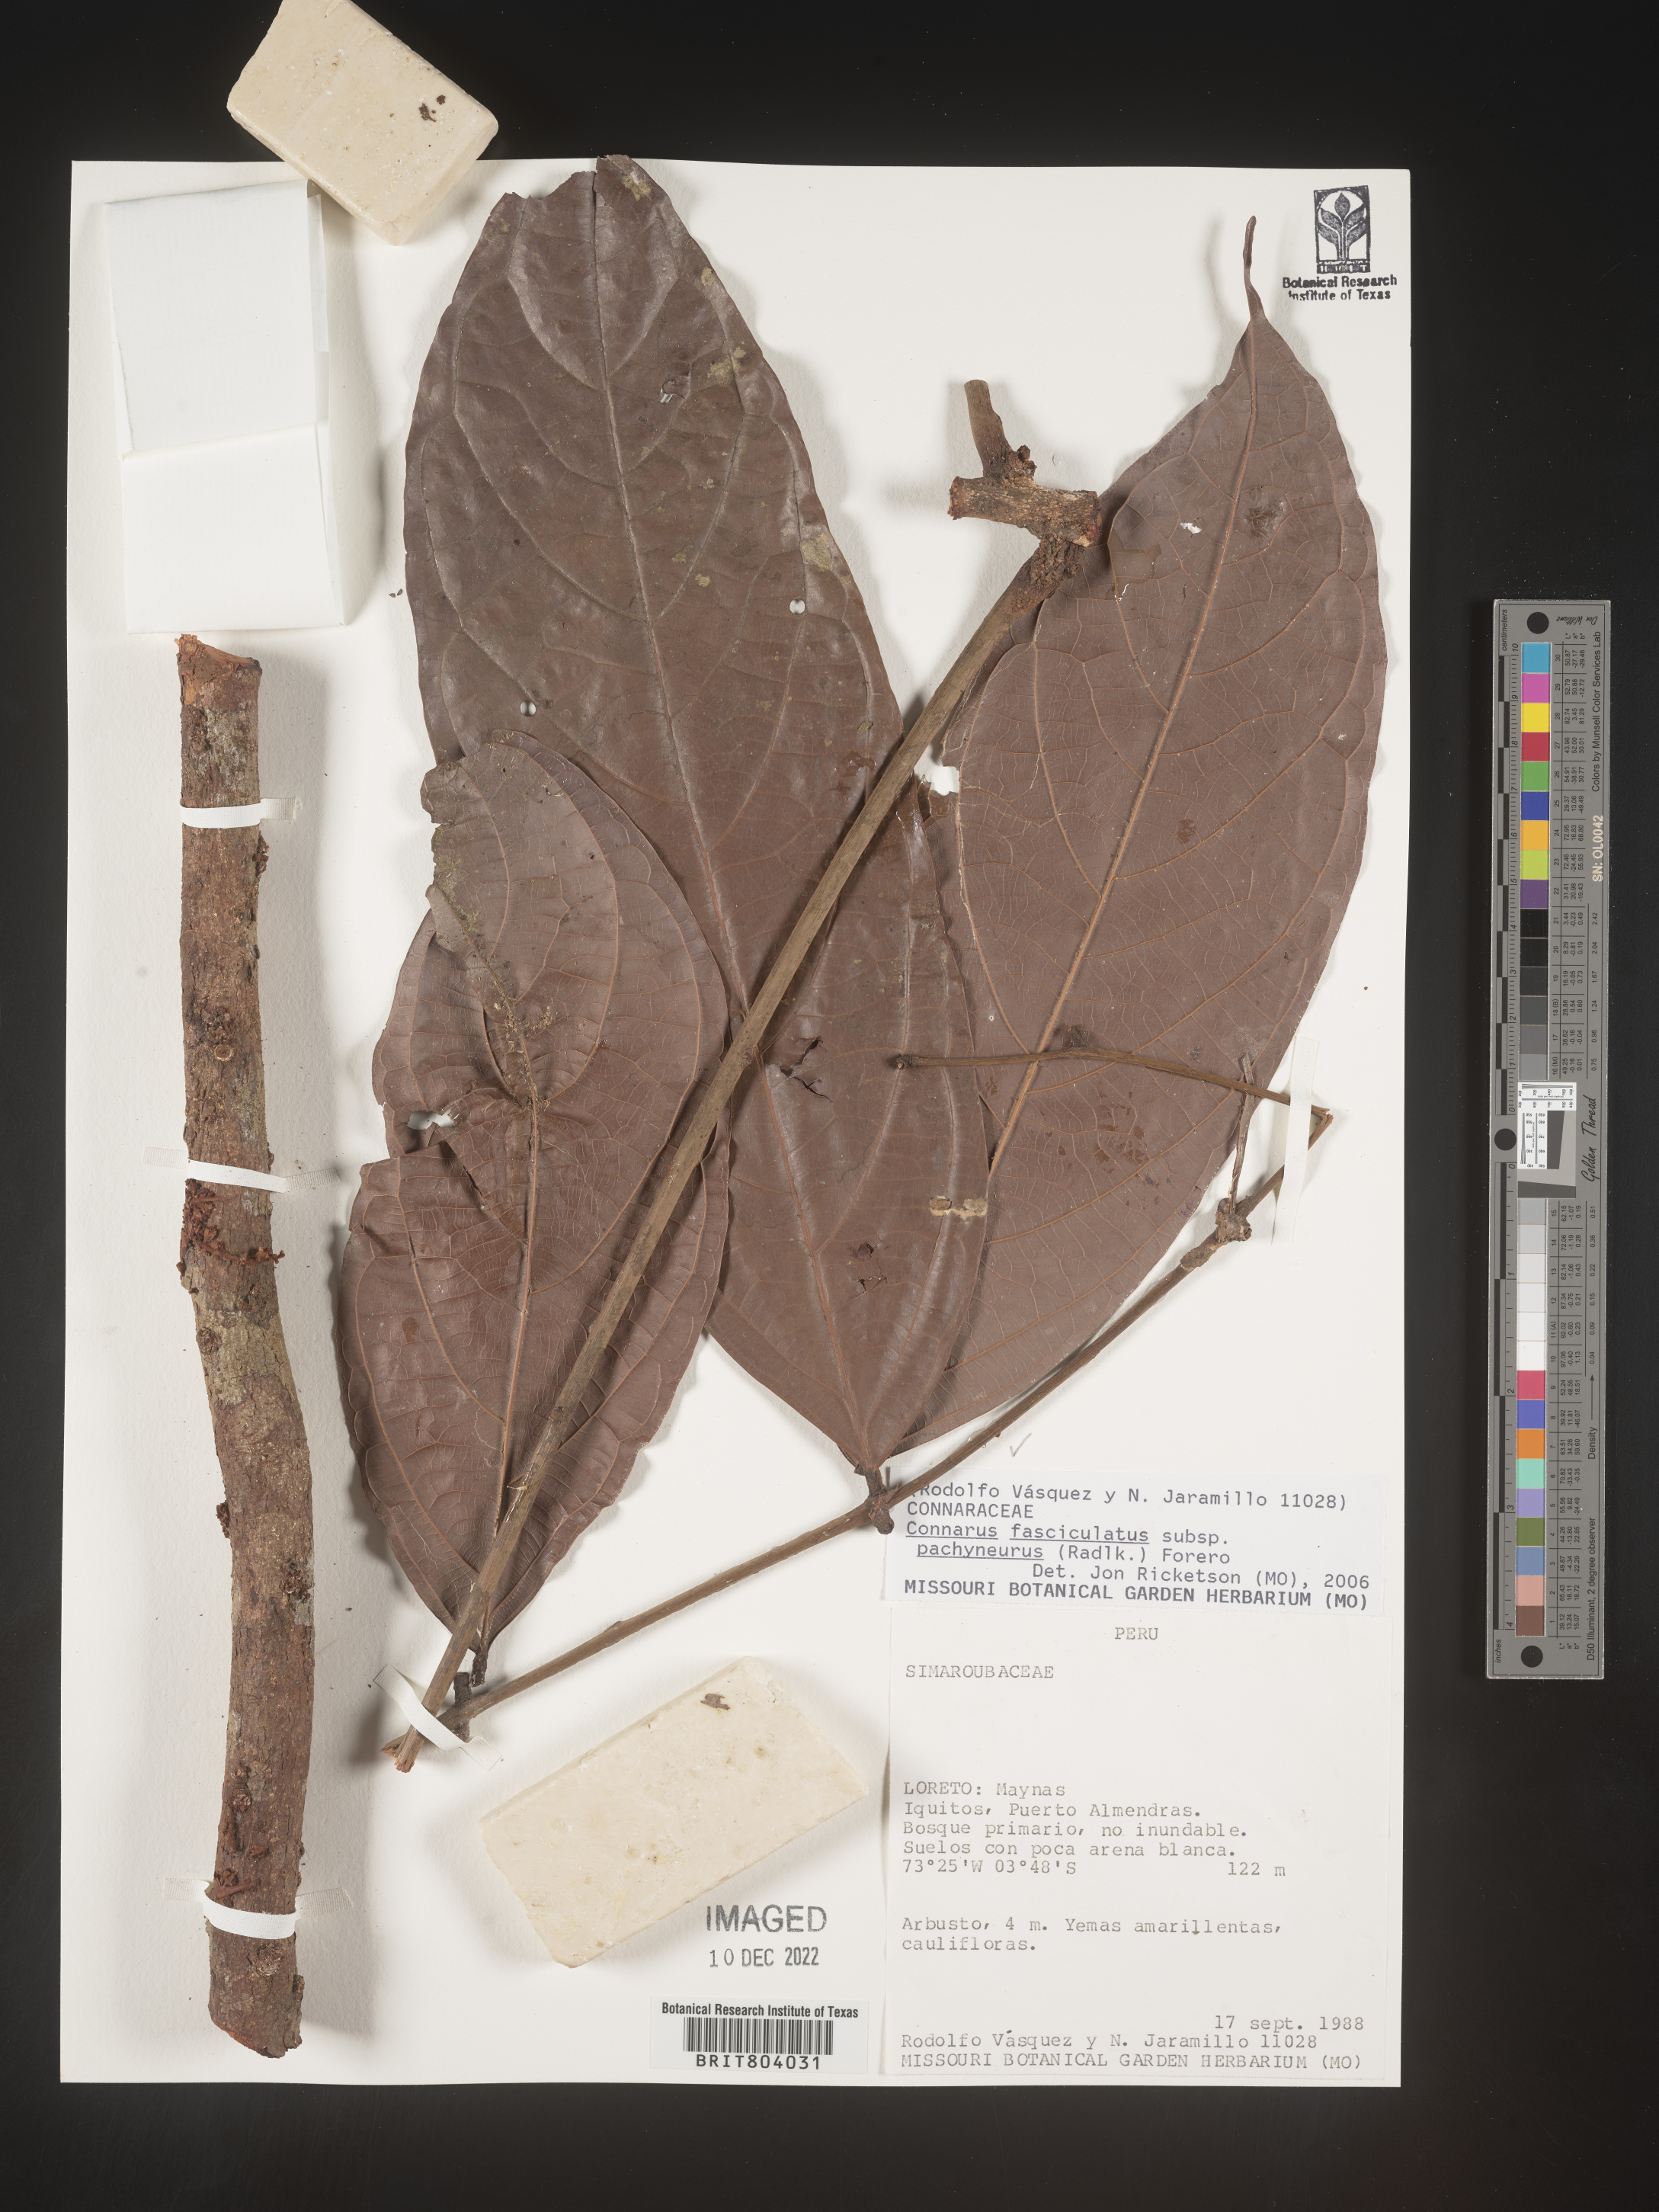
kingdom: Plantae
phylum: Tracheophyta
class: Magnoliopsida
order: Oxalidales
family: Connaraceae
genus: Connarus
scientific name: Connarus
